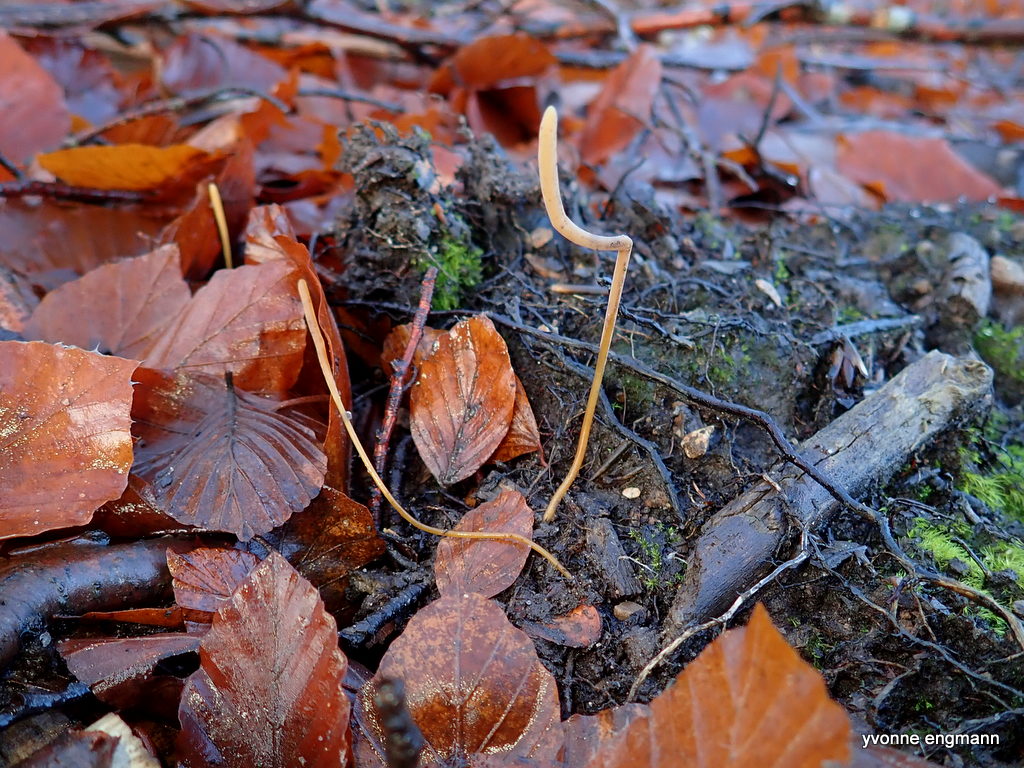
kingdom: Fungi
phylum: Basidiomycota
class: Agaricomycetes
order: Agaricales
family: Typhulaceae
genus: Typhula
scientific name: Typhula fistulosa
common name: pibet rørkølle
